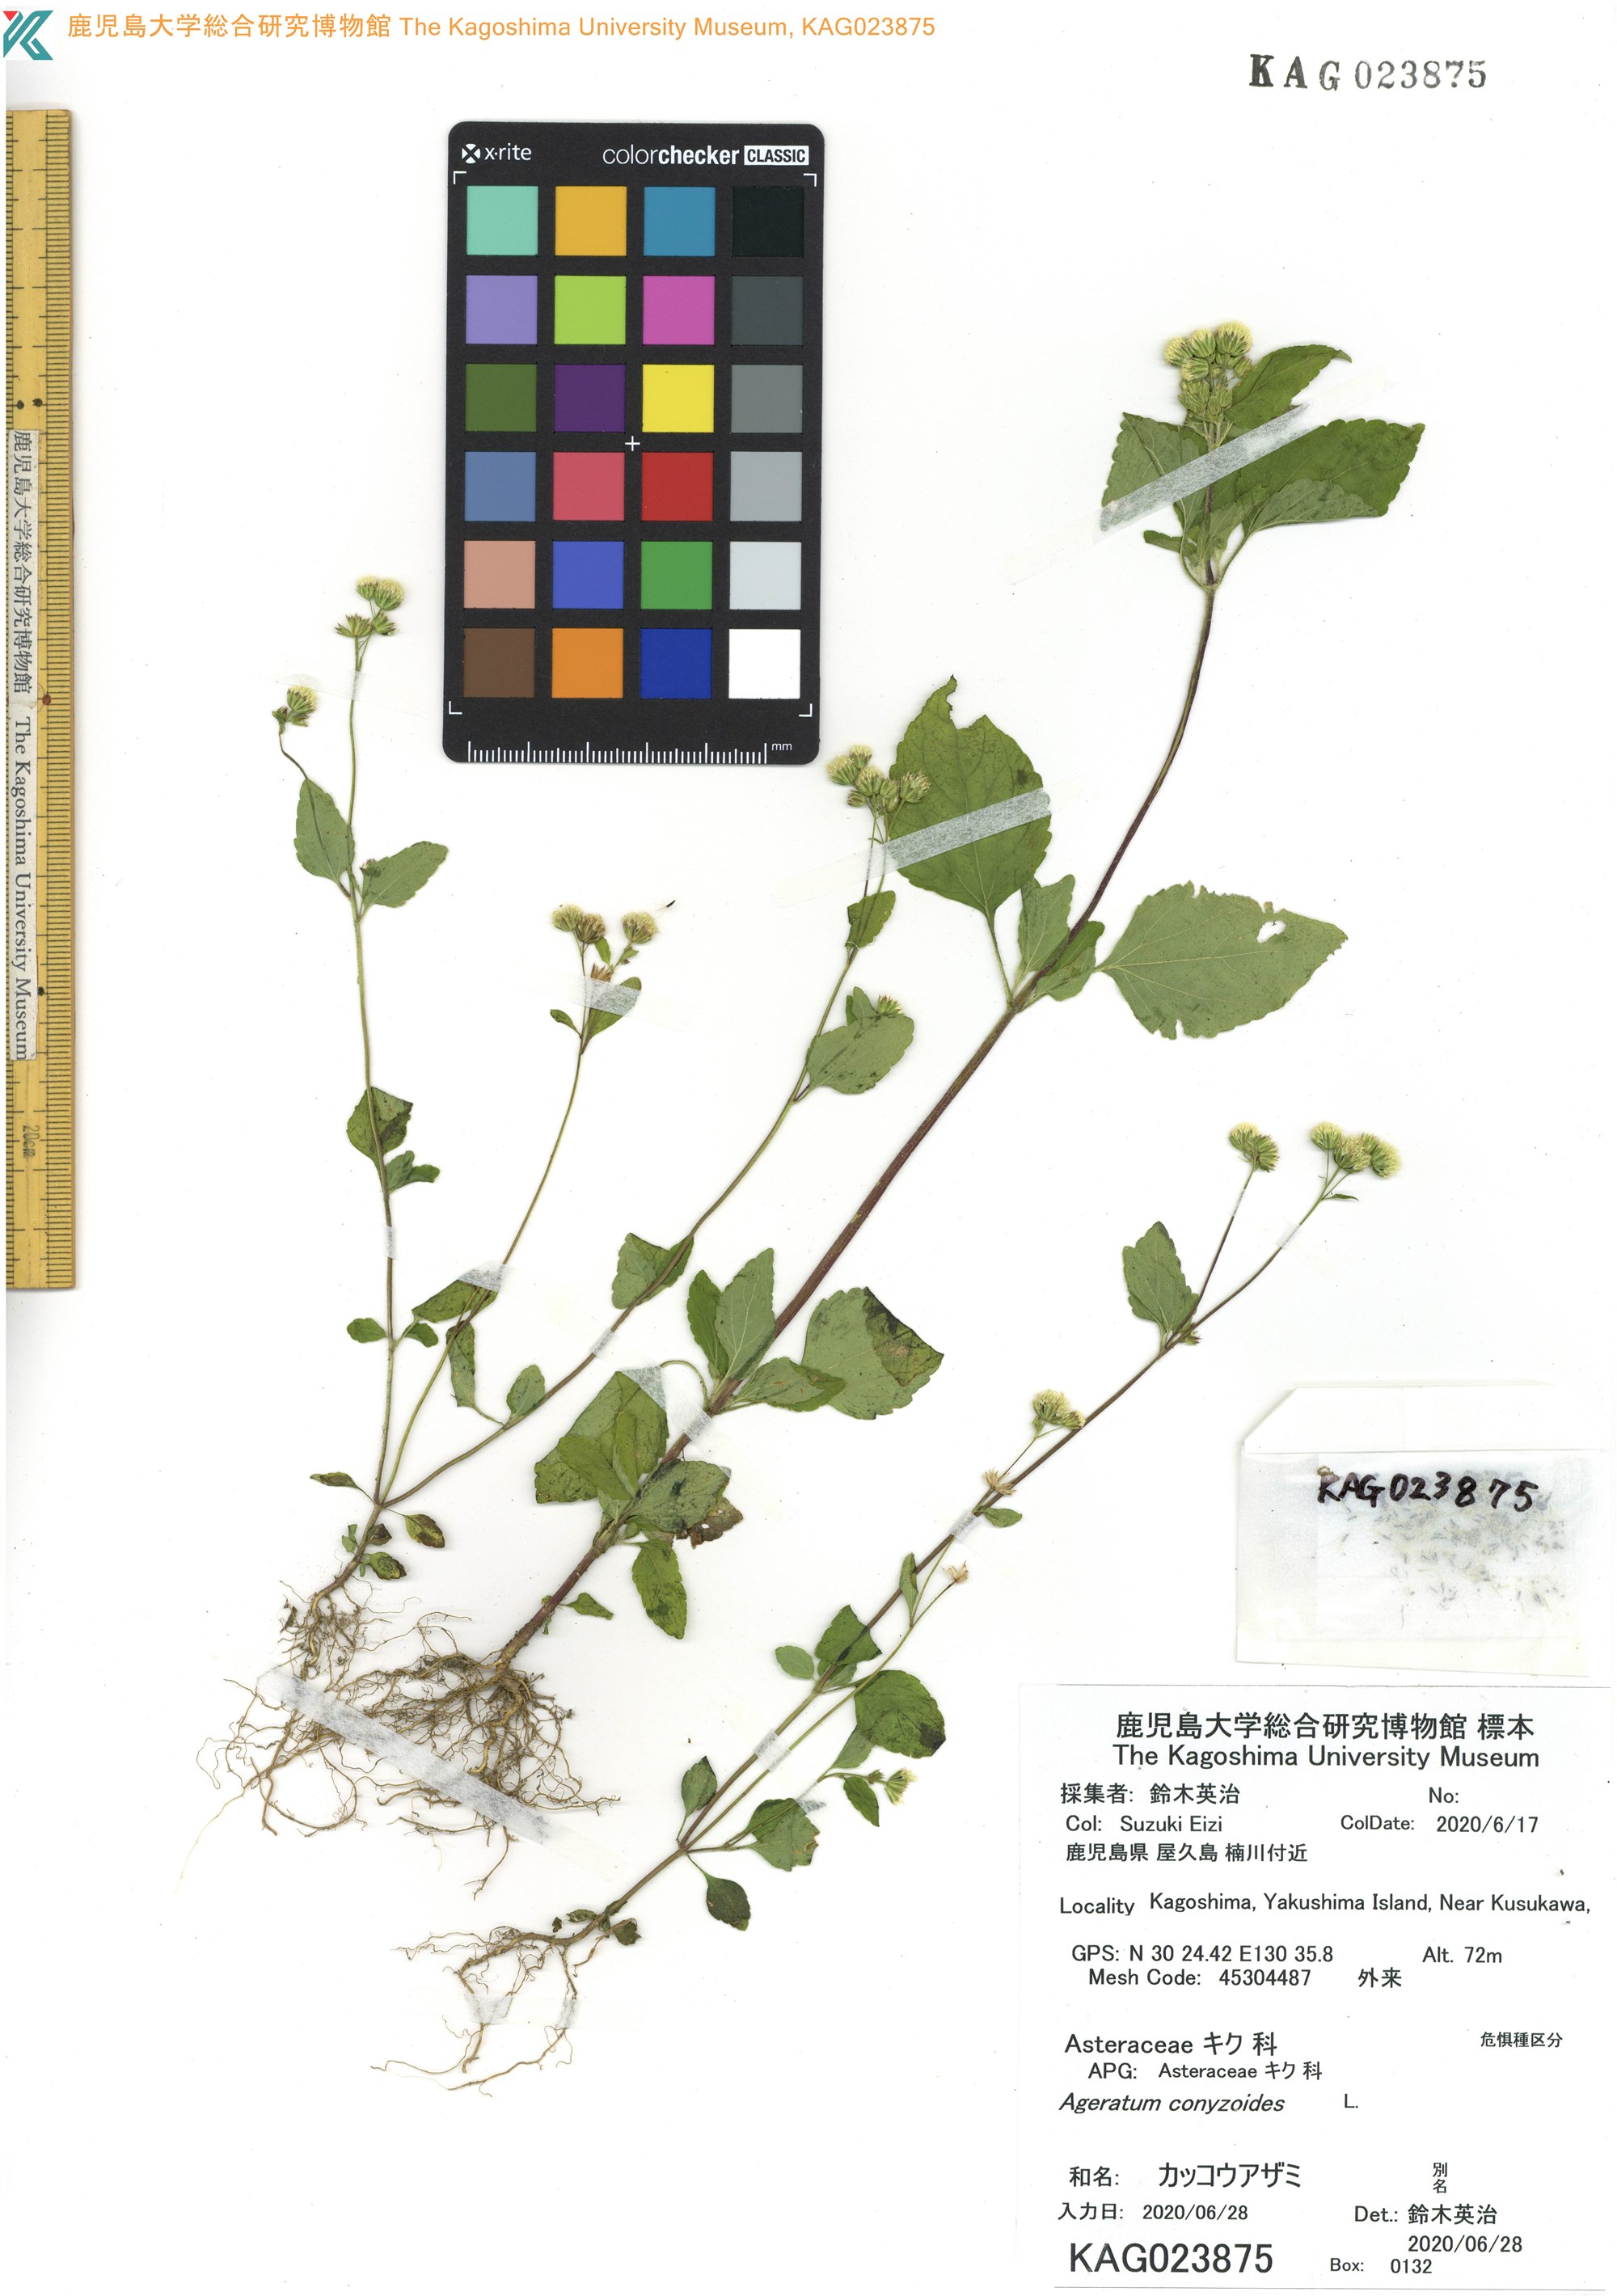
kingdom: Plantae
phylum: Tracheophyta
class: Magnoliopsida
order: Asterales
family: Asteraceae
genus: Ageratum
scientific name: Ageratum conyzoides
